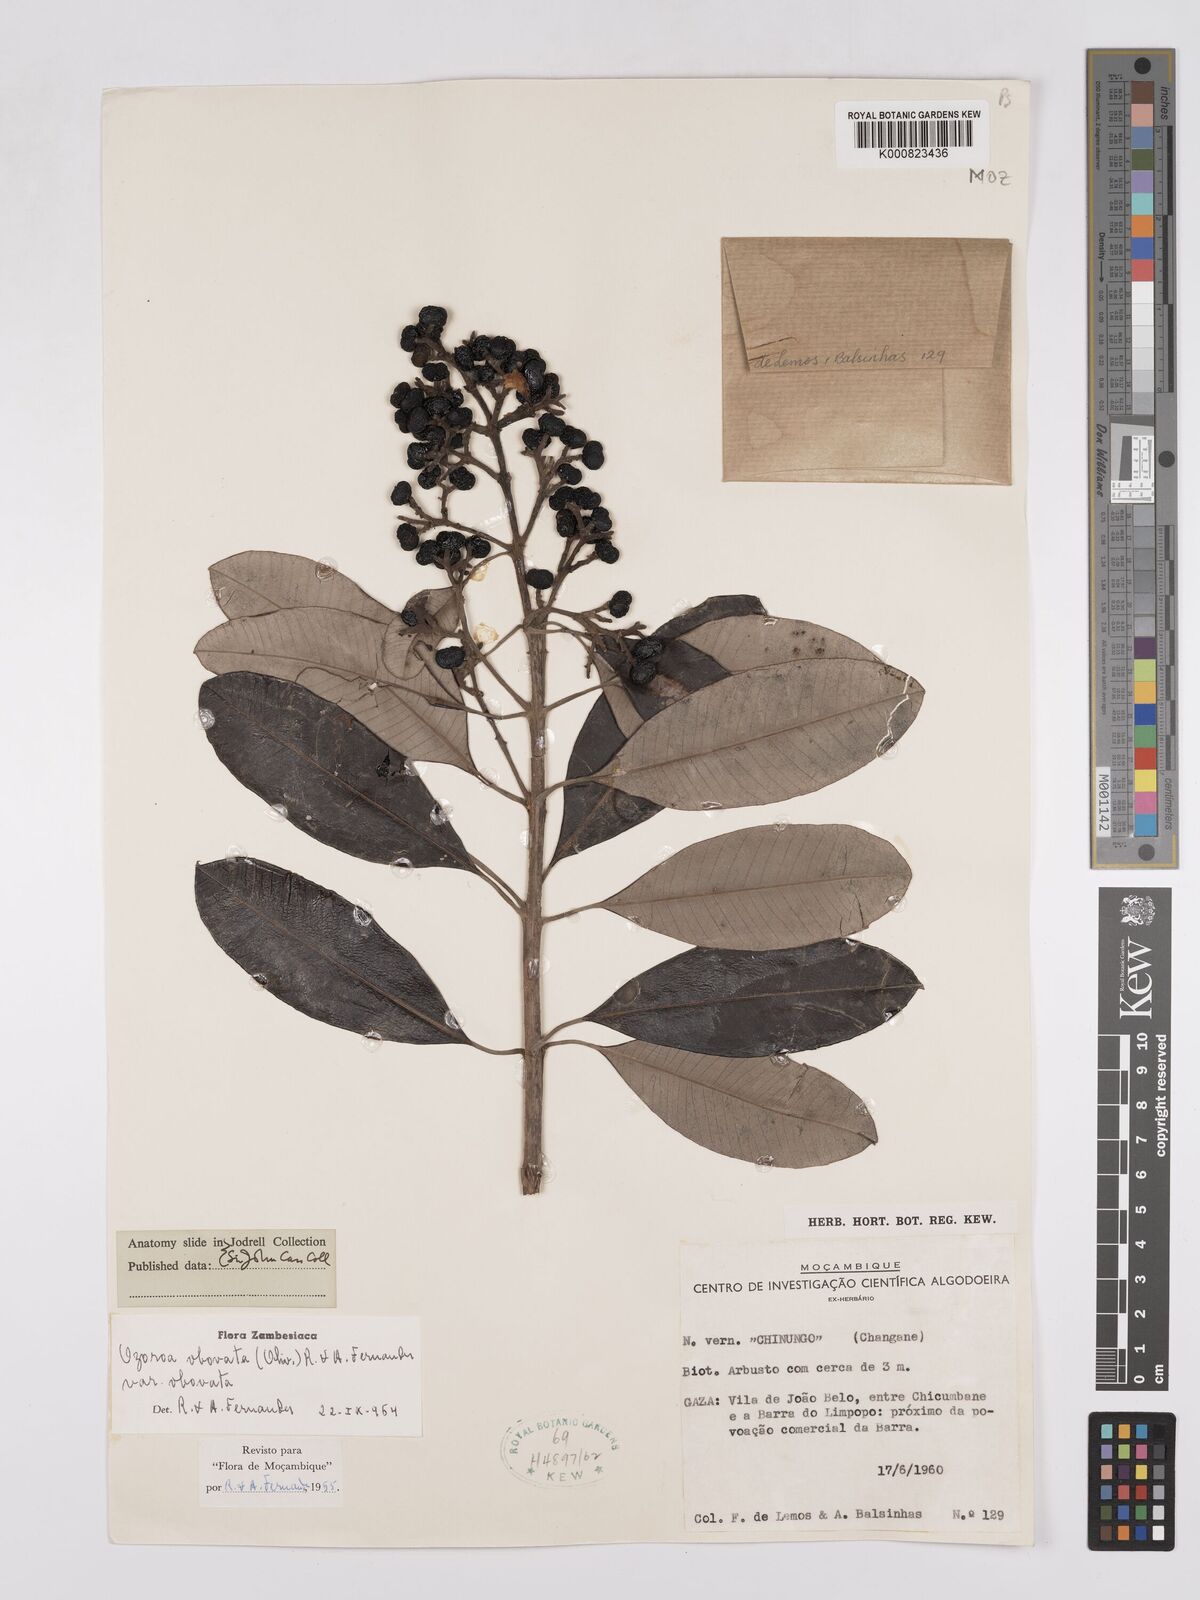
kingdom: Plantae
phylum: Tracheophyta
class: Magnoliopsida
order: Sapindales
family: Anacardiaceae
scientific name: Anacardiaceae
